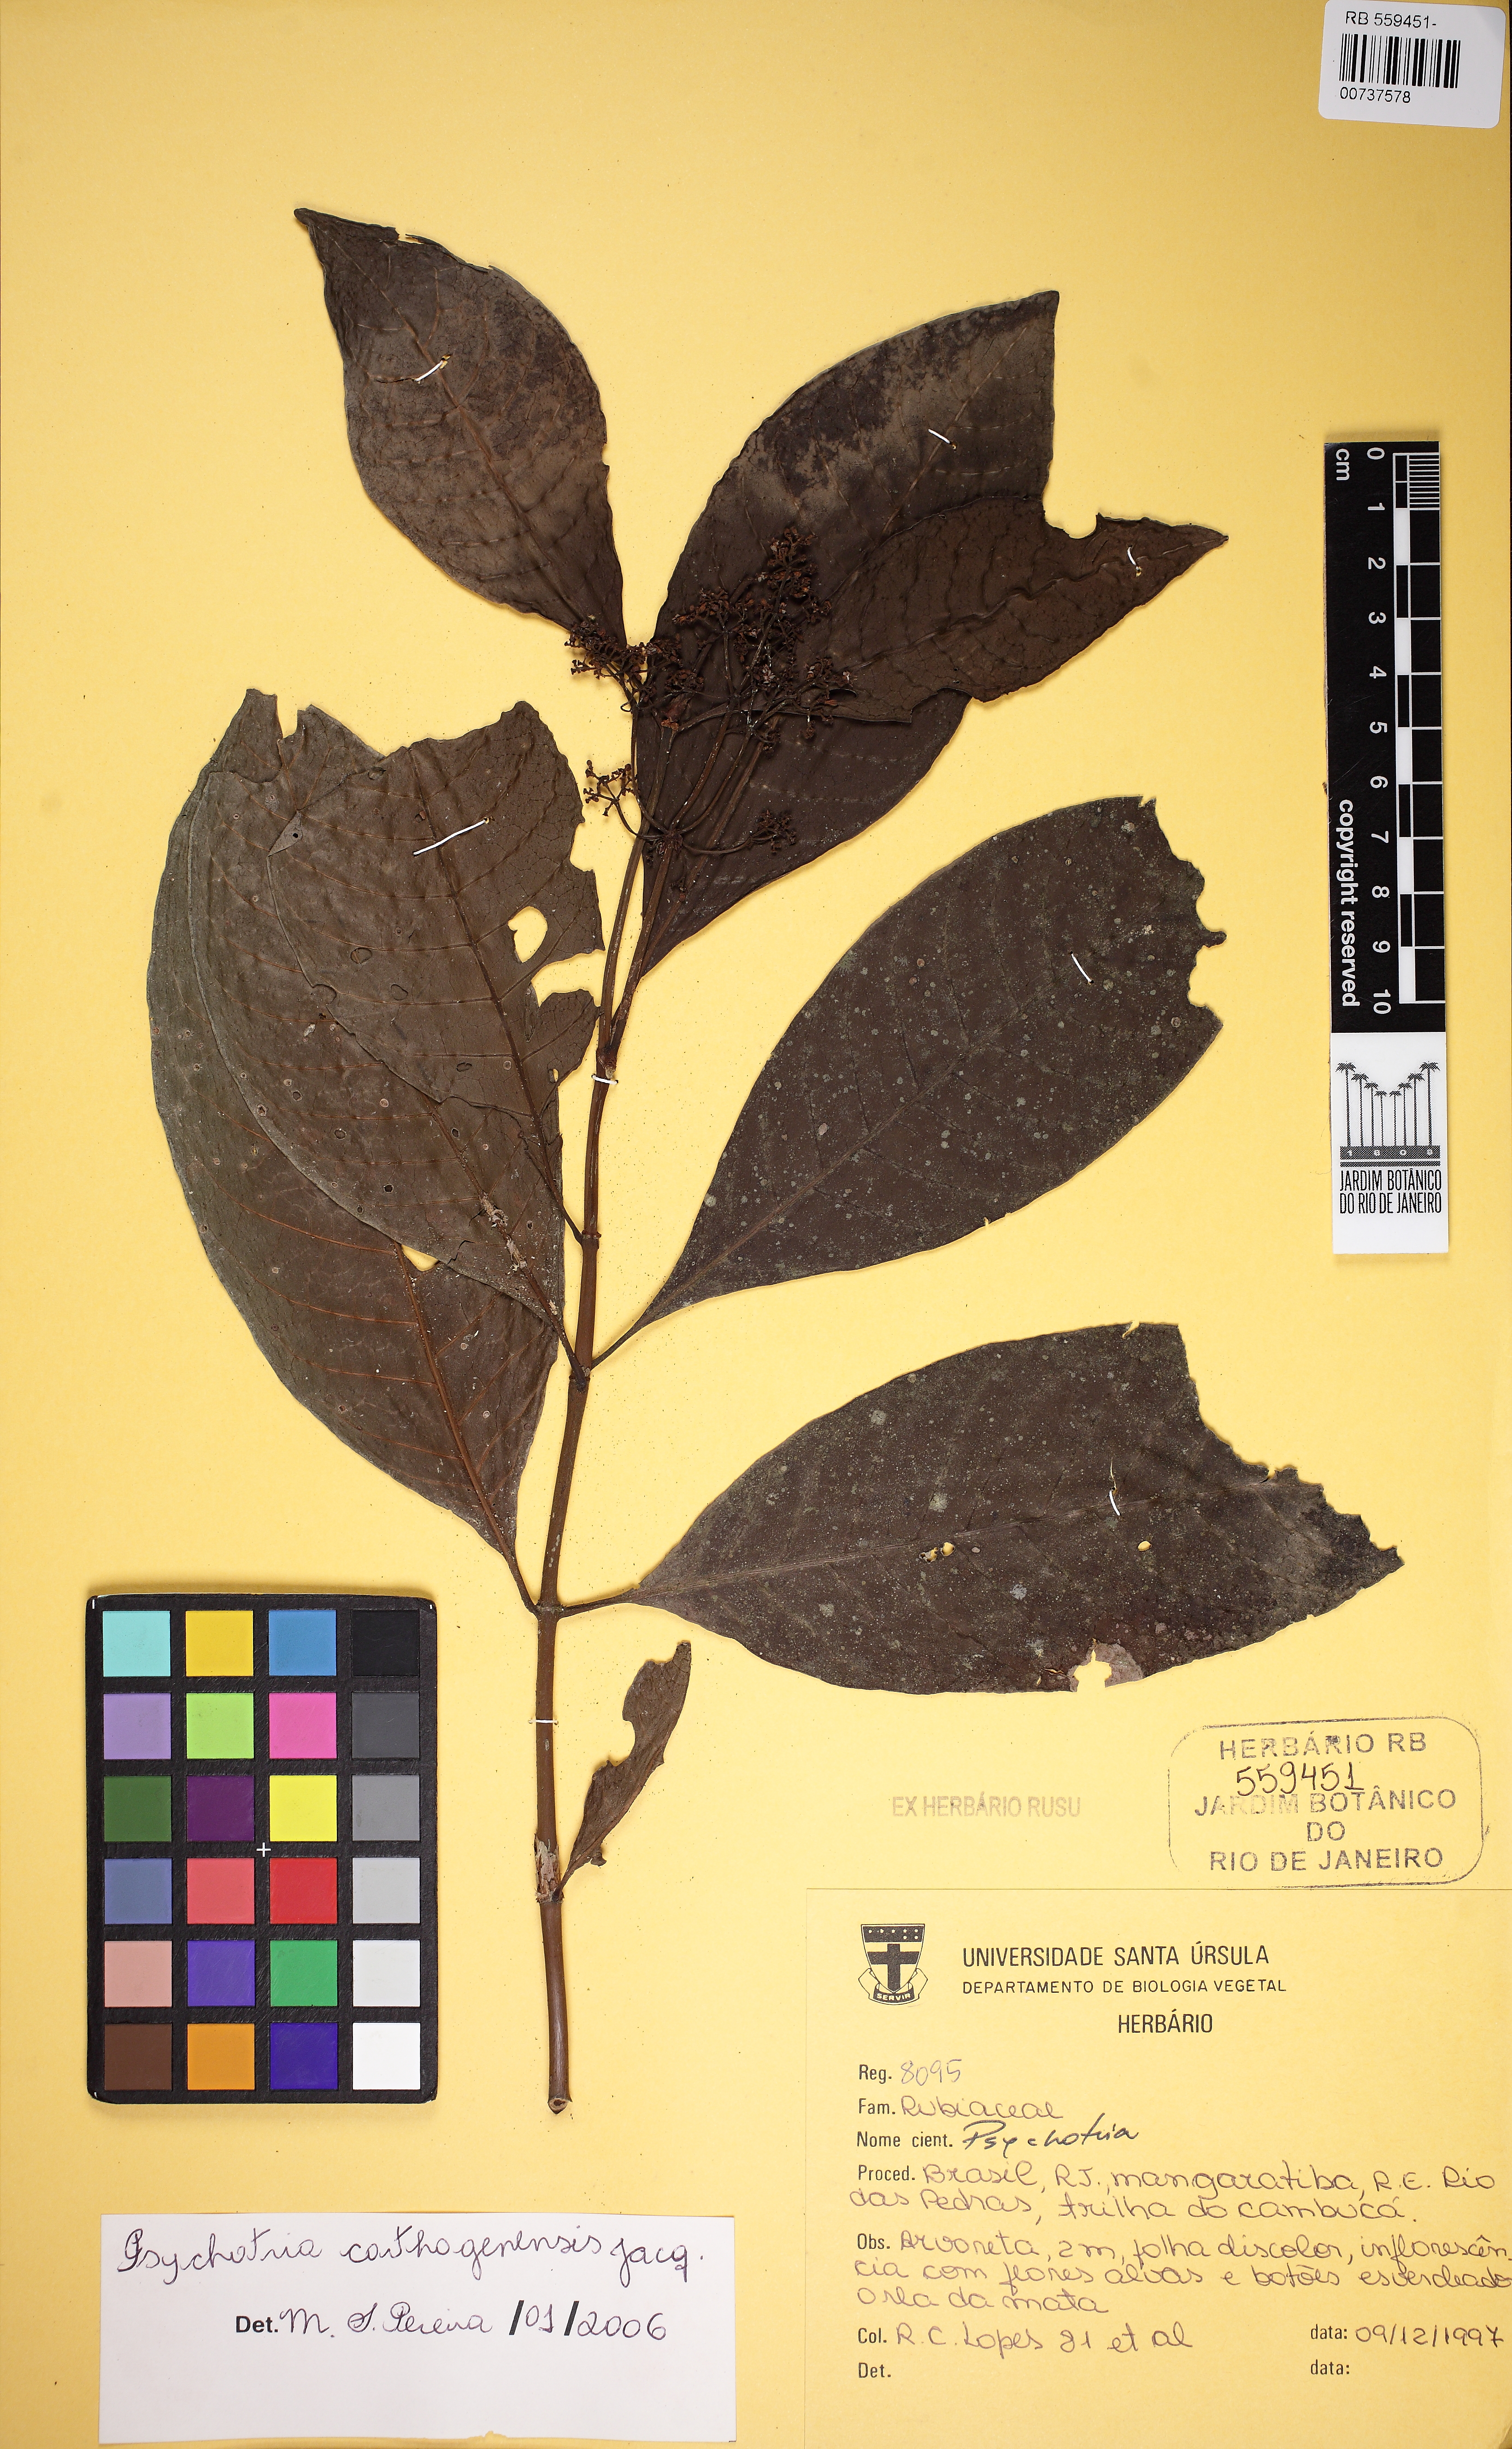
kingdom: Plantae
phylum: Tracheophyta
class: Magnoliopsida
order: Gentianales
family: Rubiaceae
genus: Psychotria
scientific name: Psychotria carthagenensis
